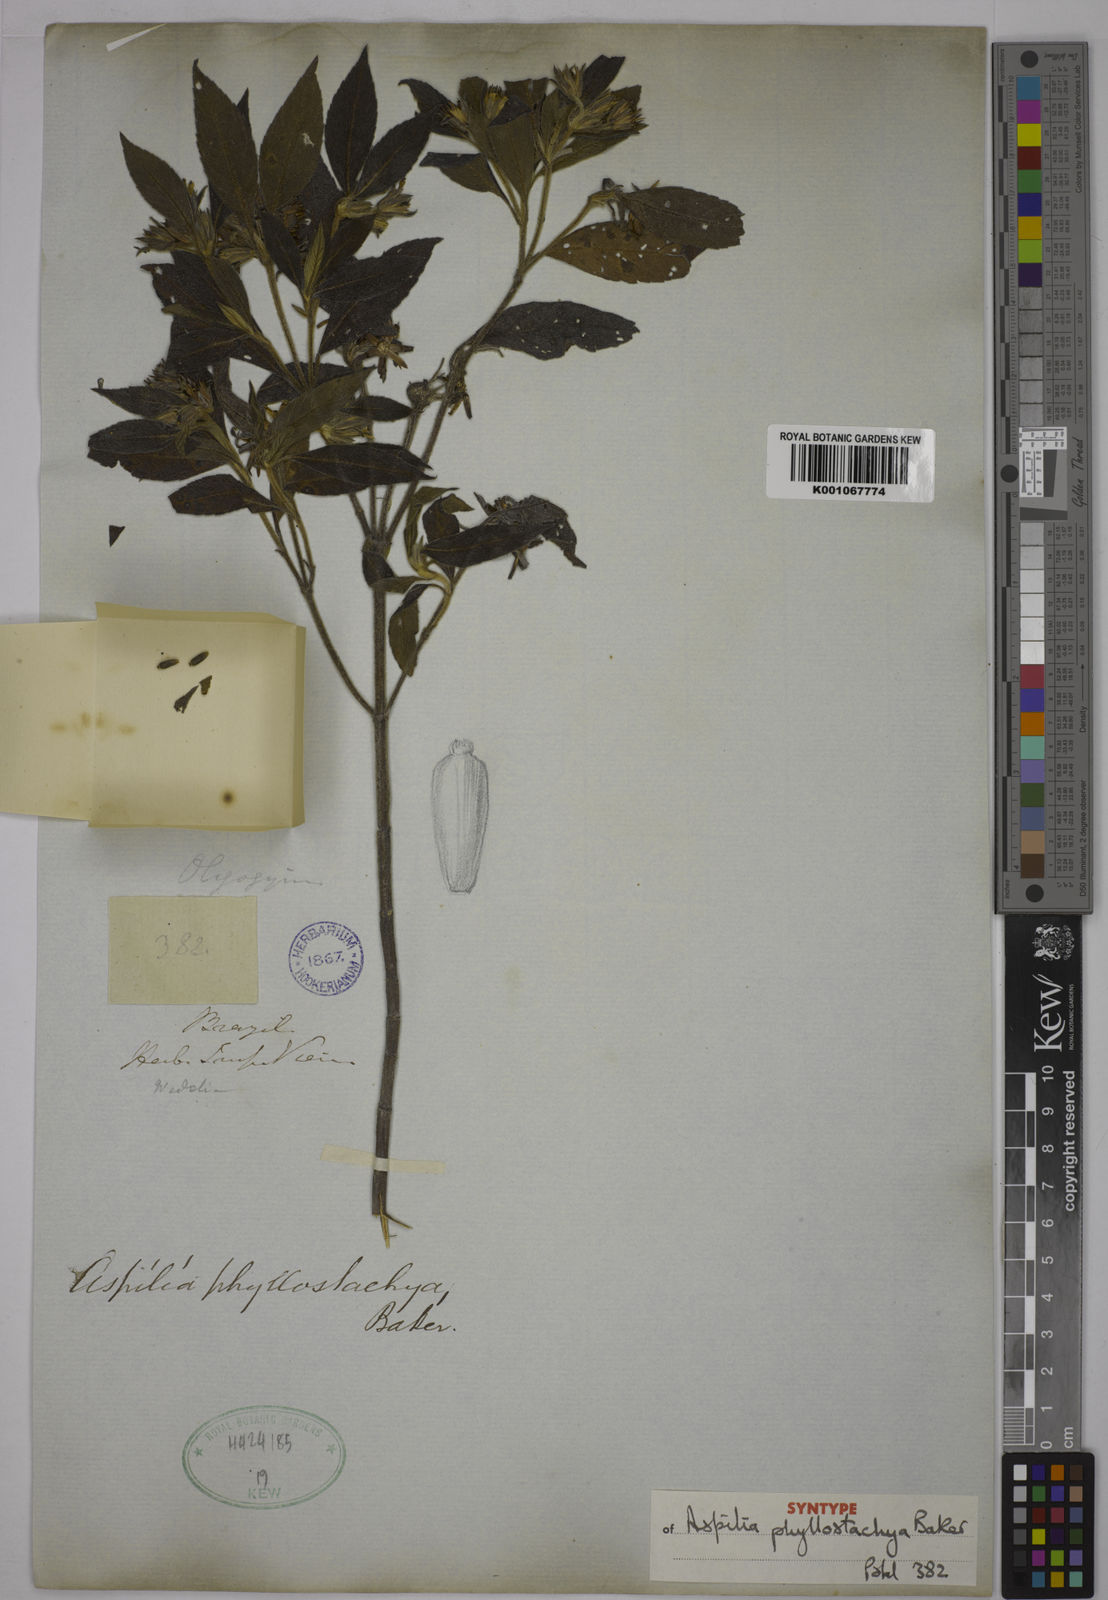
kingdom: Plantae
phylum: Tracheophyta
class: Magnoliopsida
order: Asterales
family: Asteraceae
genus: Wedelia
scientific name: Wedelia phyllostachya
